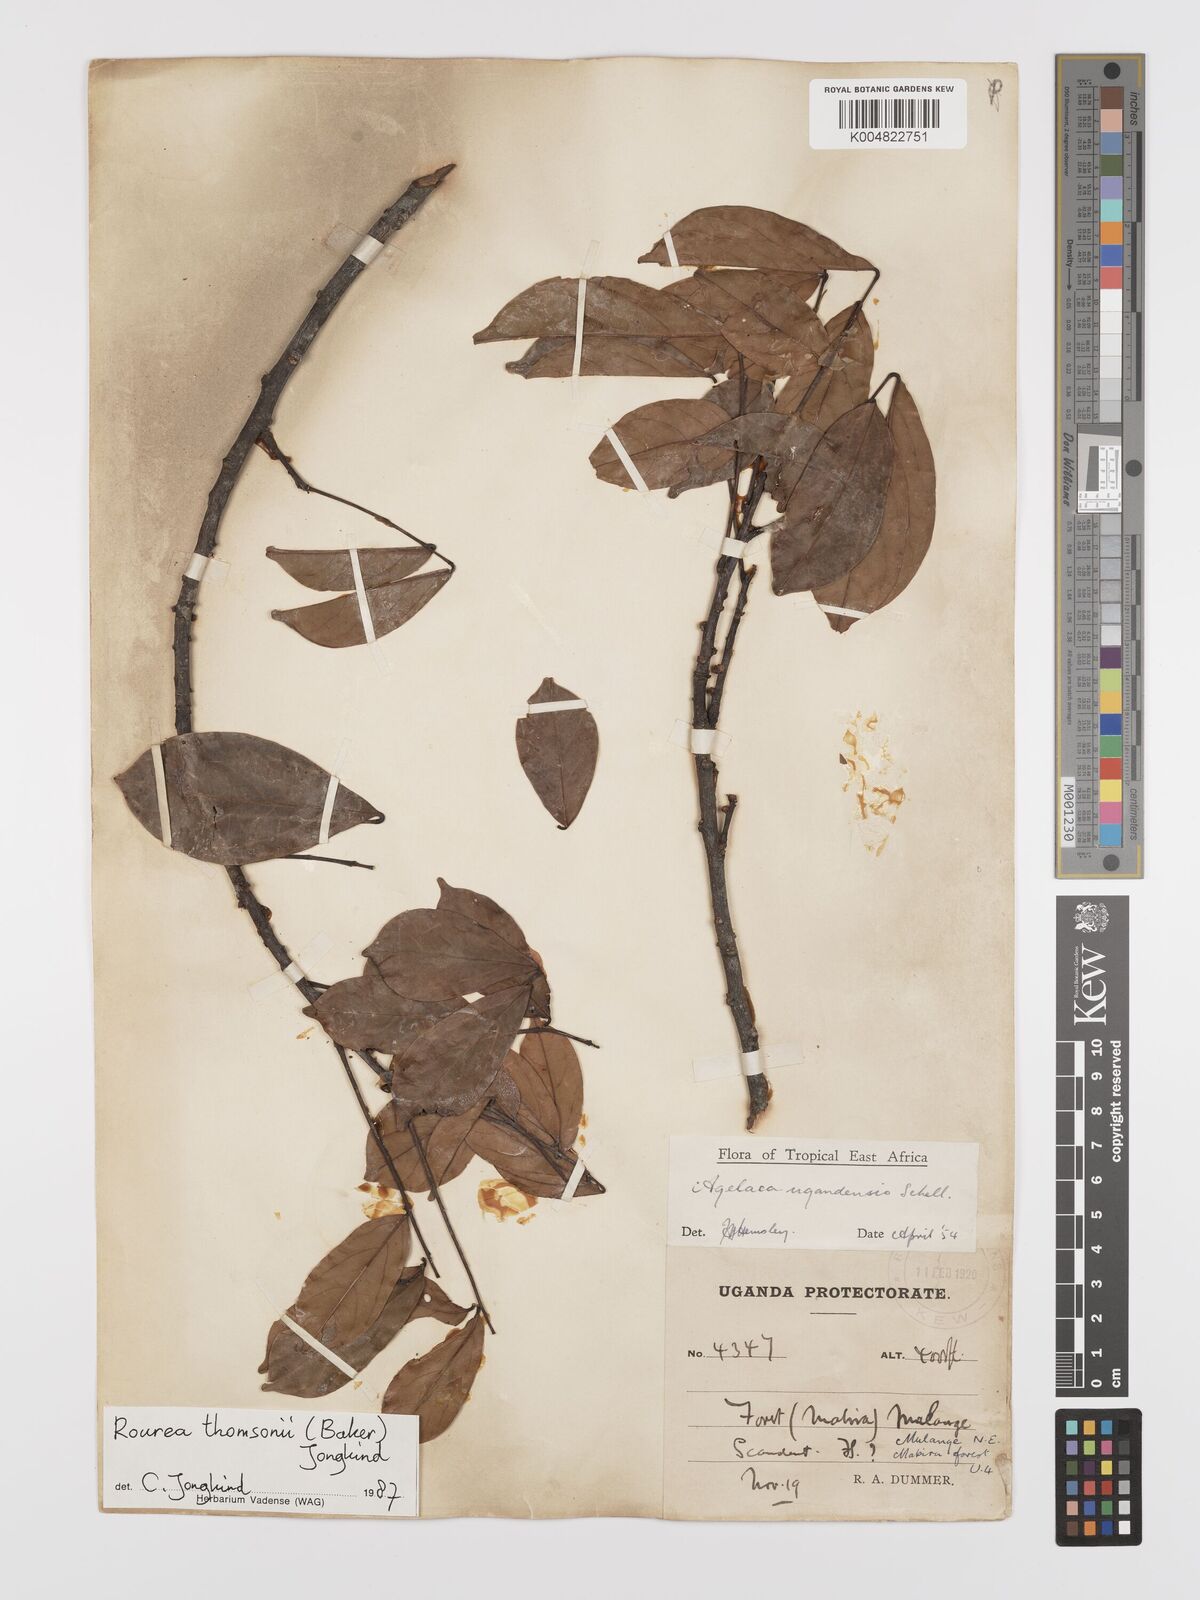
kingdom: Plantae
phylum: Tracheophyta
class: Magnoliopsida
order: Oxalidales
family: Connaraceae
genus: Rourea
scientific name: Rourea thomsonii
